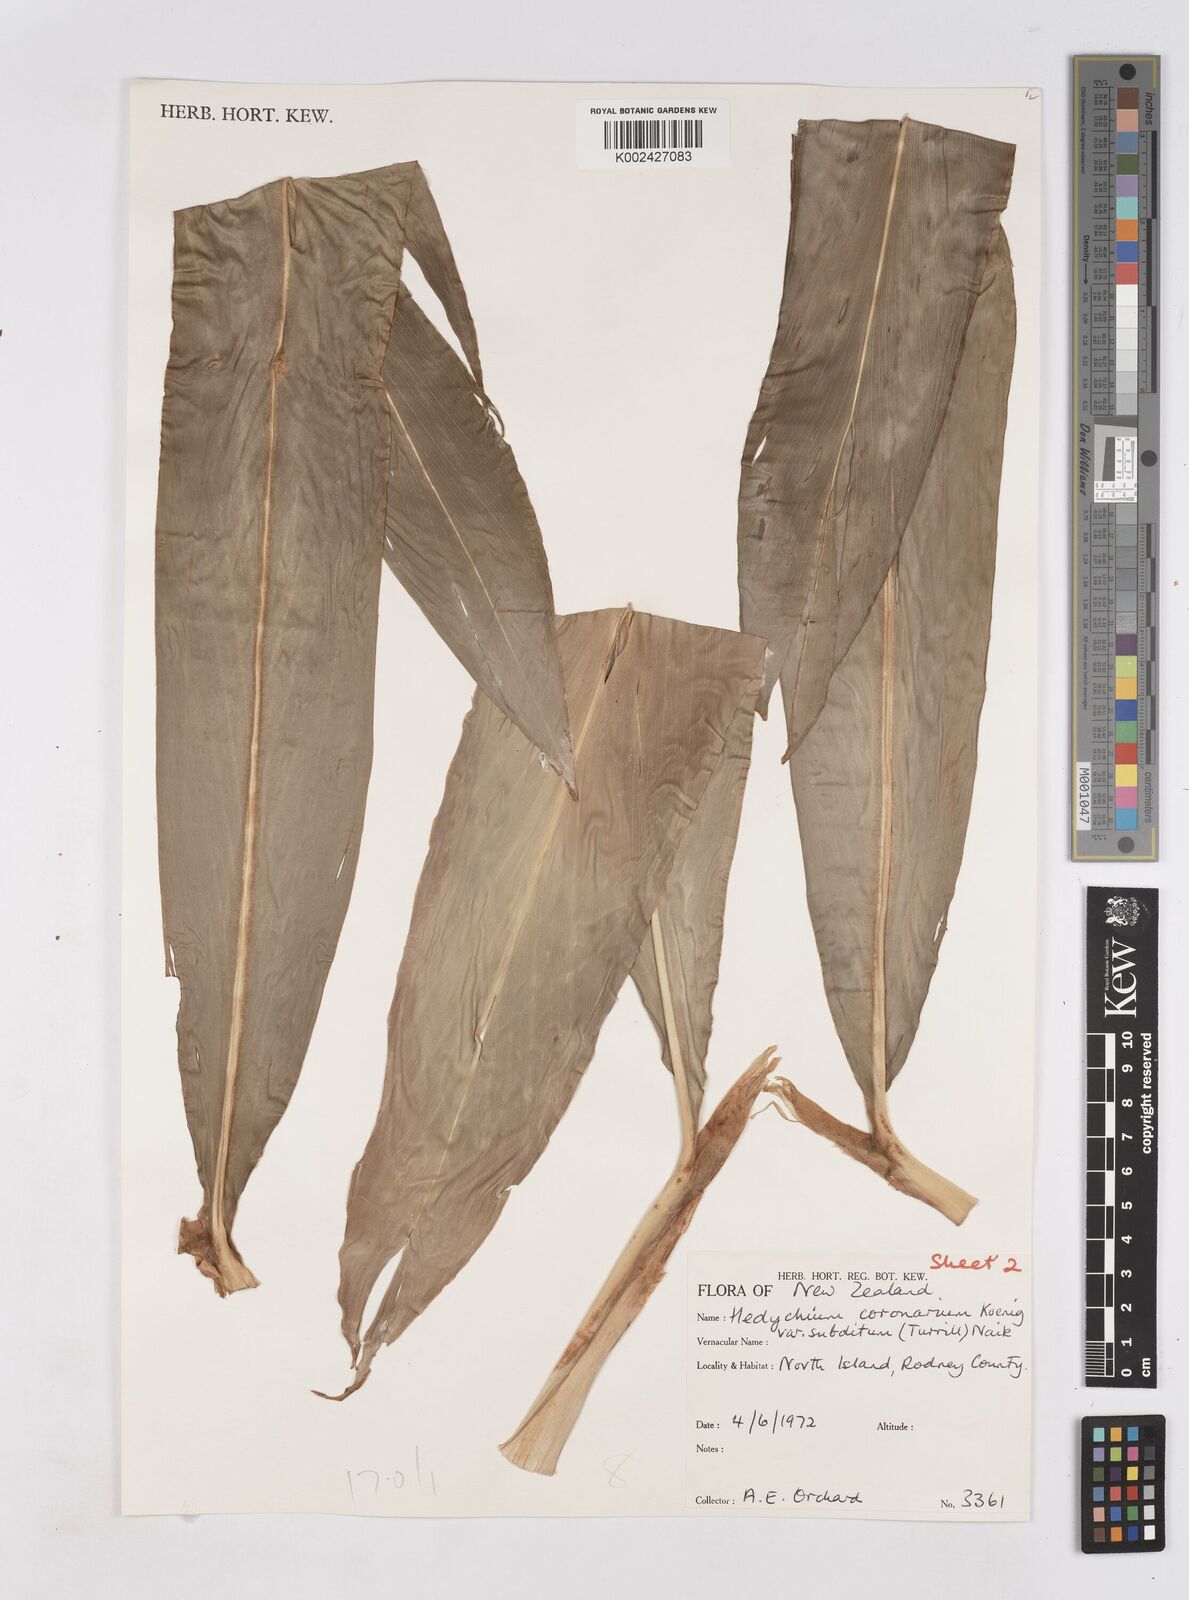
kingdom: Plantae
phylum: Tracheophyta
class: Liliopsida
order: Zingiberales
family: Zingiberaceae
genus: Hedychium
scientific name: Hedychium coronarium
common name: White garland-lily
